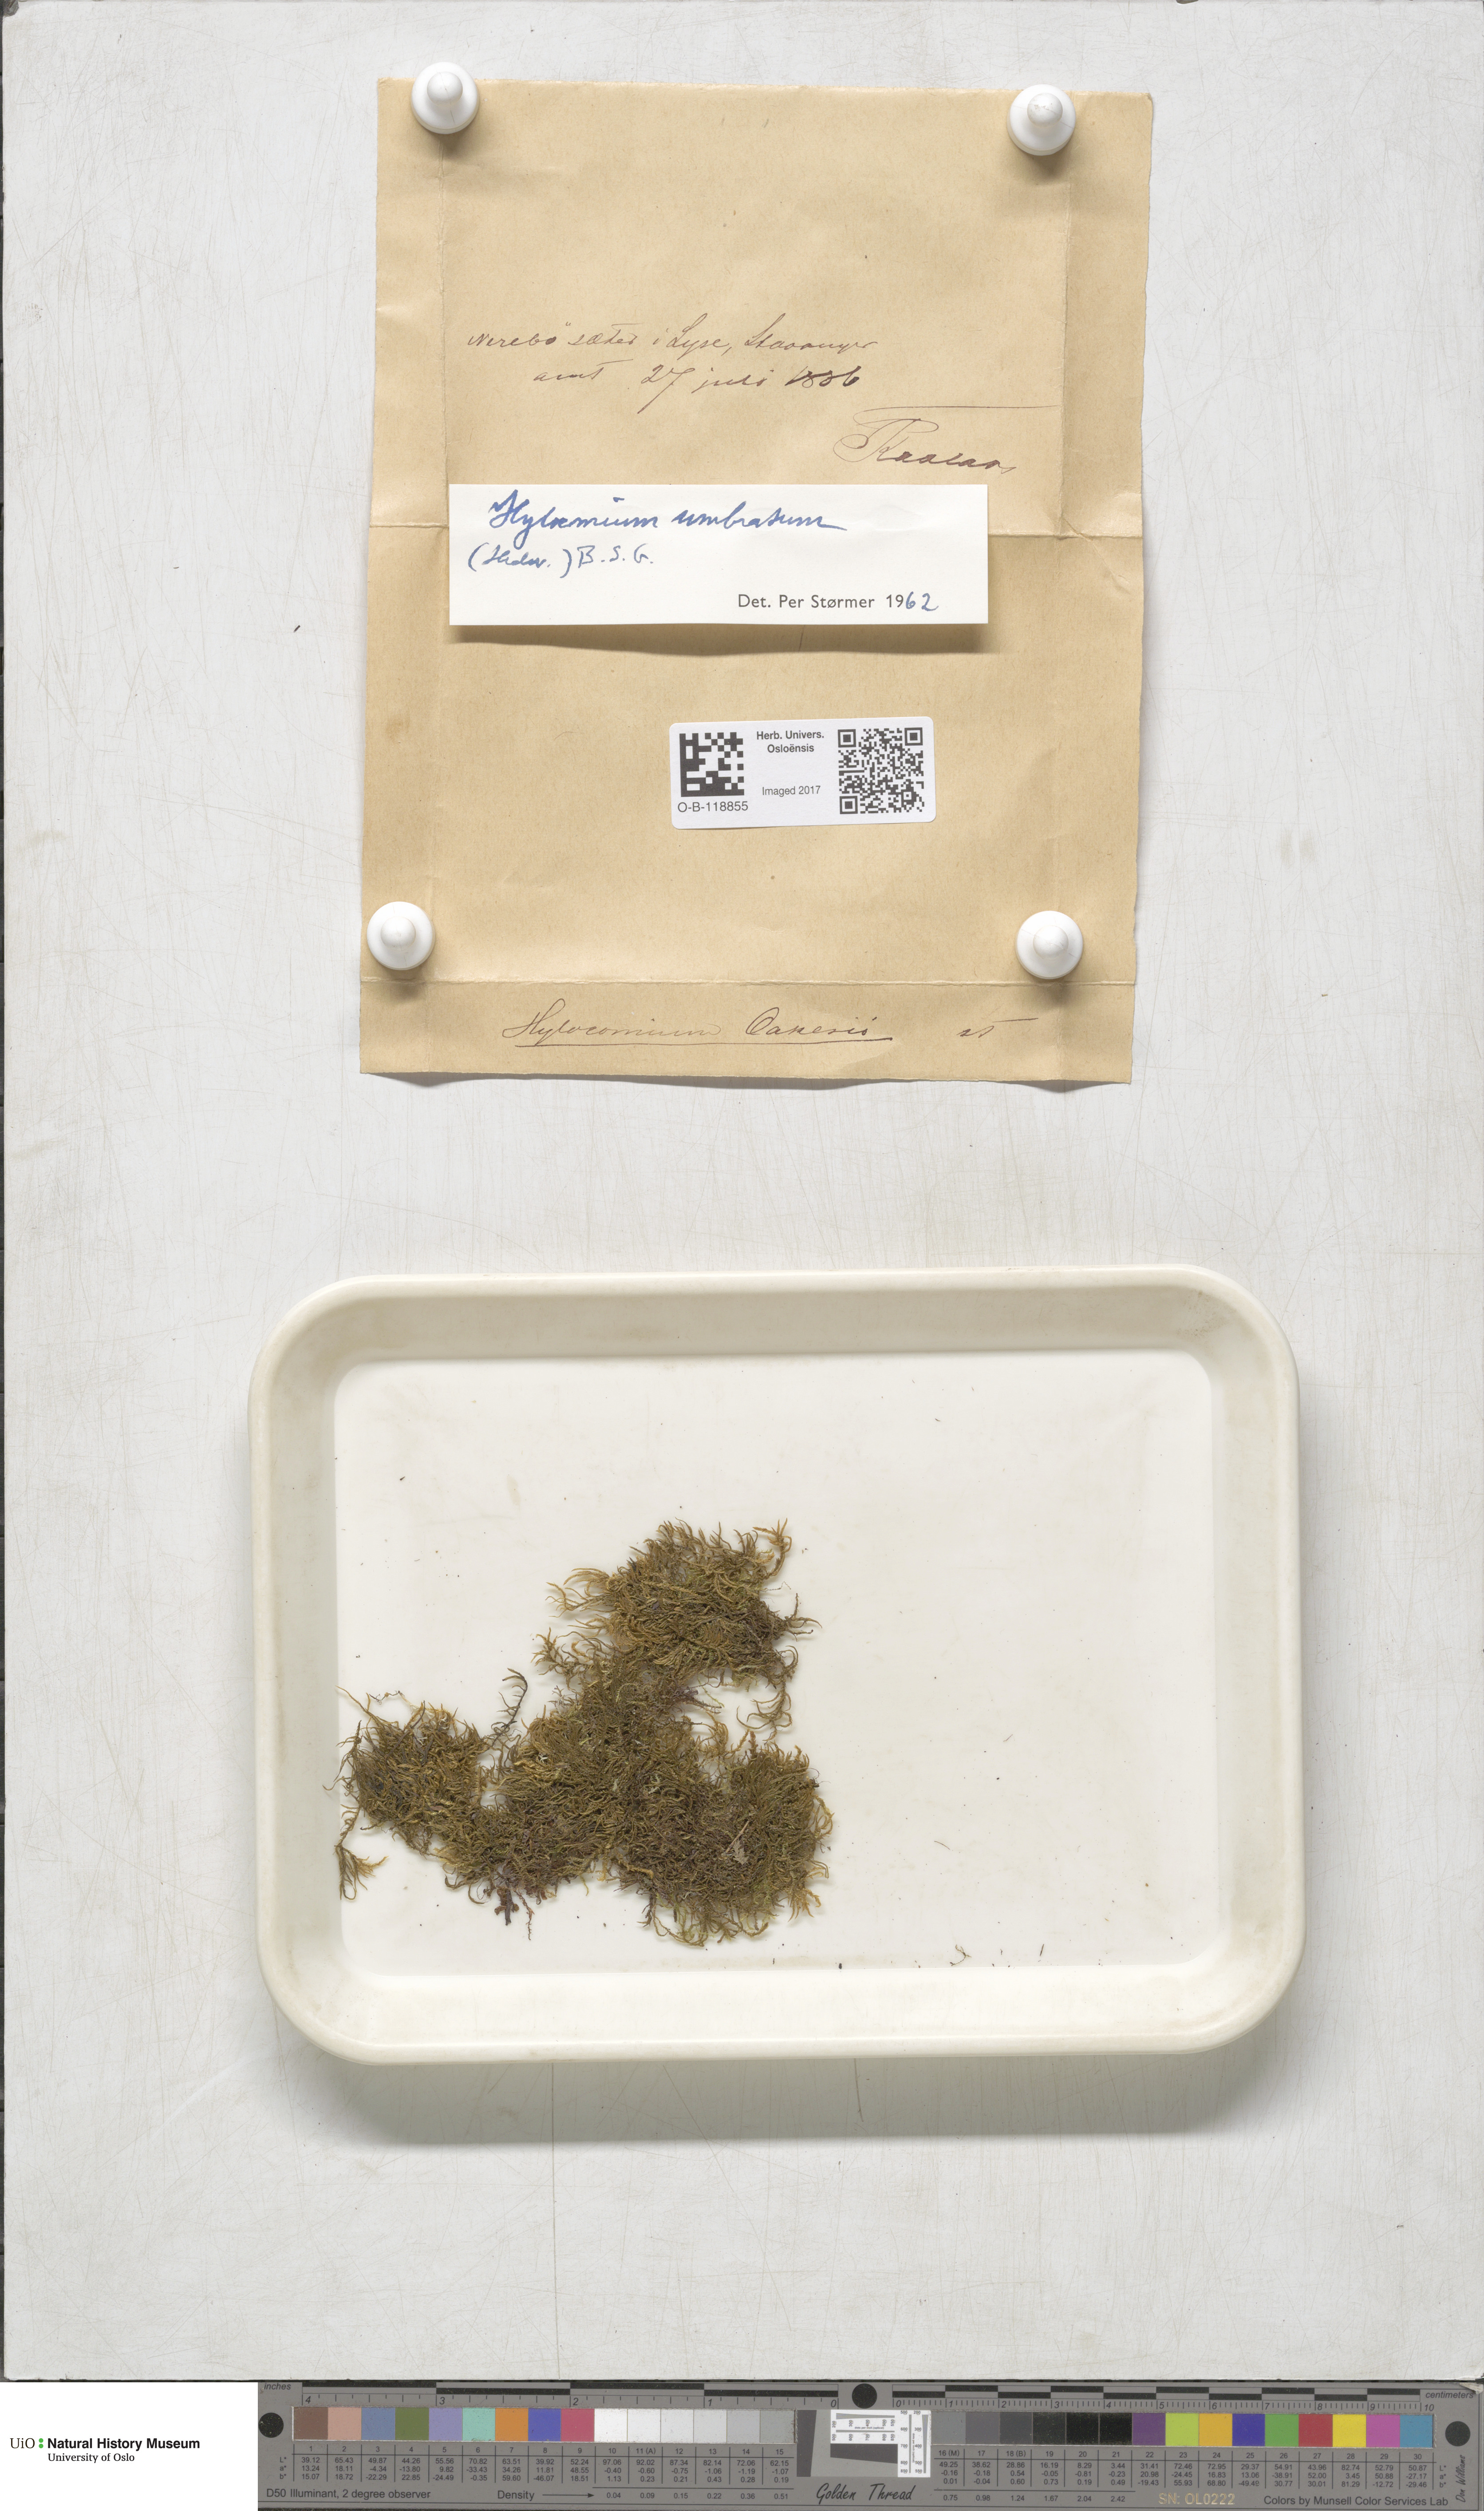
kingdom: Plantae
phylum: Bryophyta
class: Bryopsida
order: Hypnales
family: Hylocomiaceae
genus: Hylocomiastrum
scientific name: Hylocomiastrum umbratum
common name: Shaded woods moss
